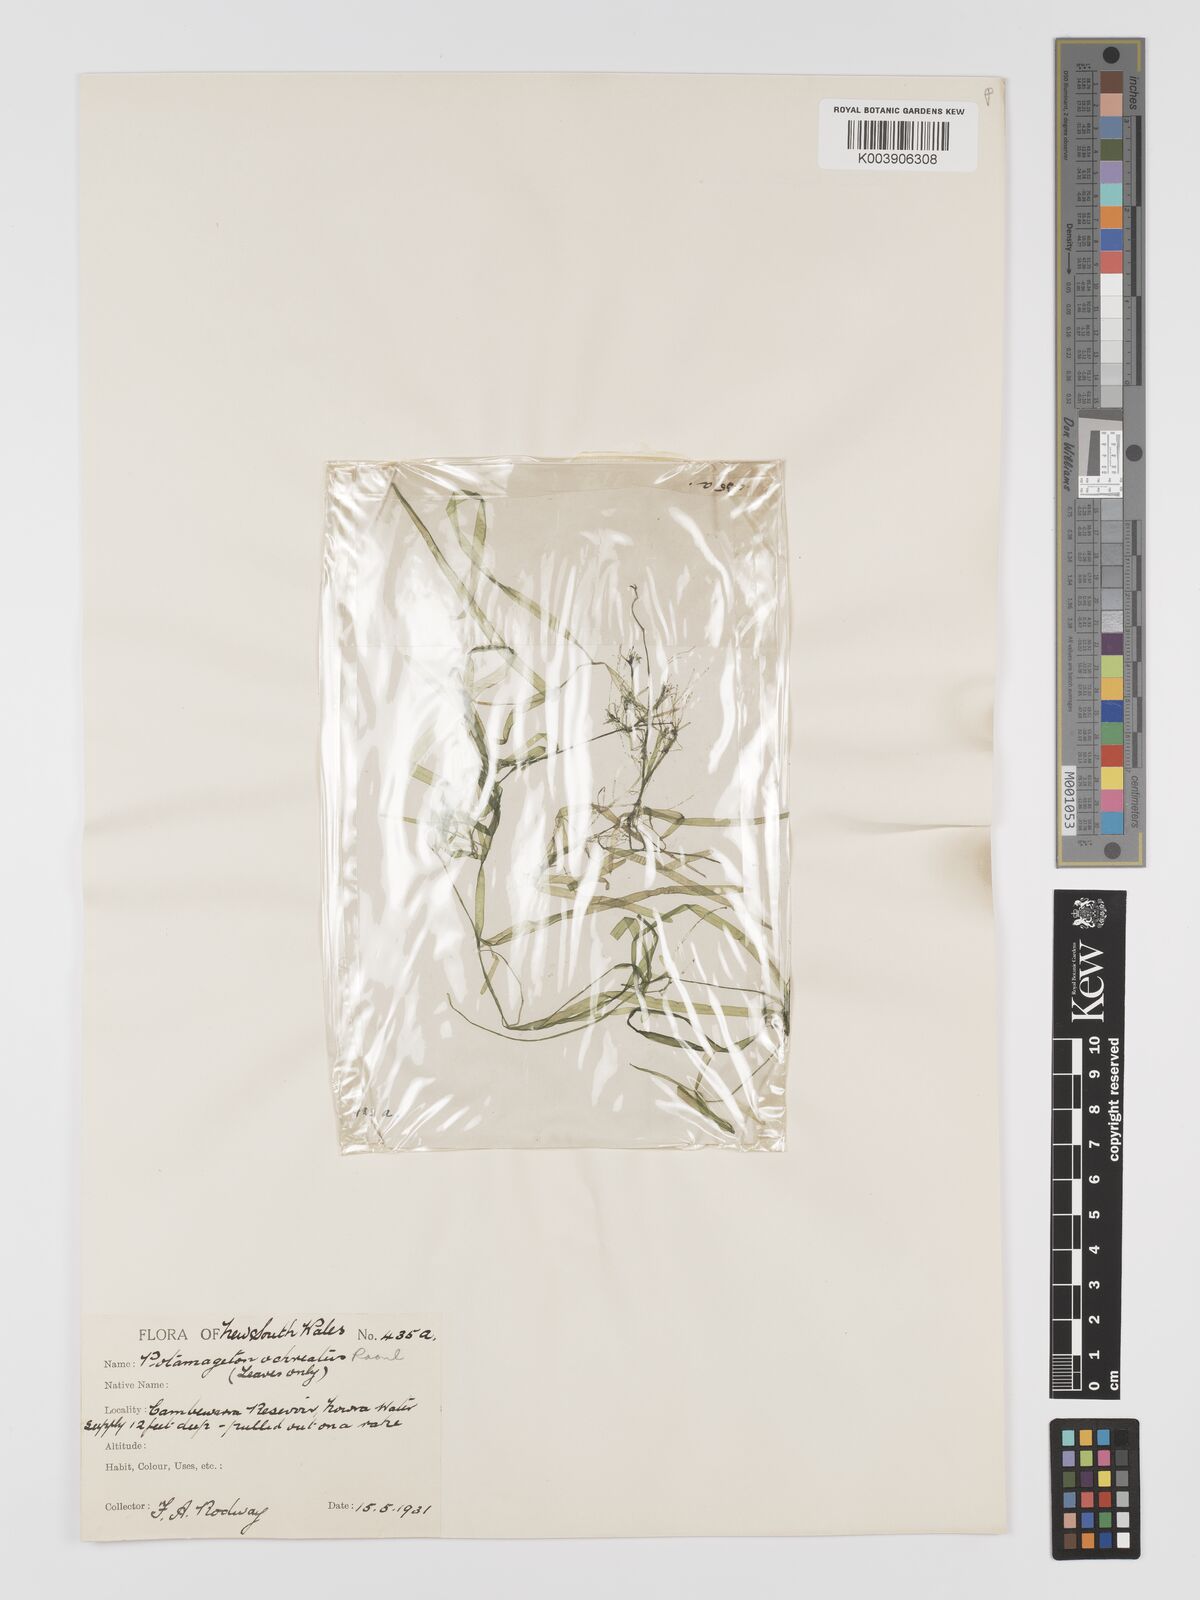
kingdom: Plantae
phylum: Tracheophyta
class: Liliopsida
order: Alismatales
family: Potamogetonaceae
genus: Potamogeton
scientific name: Potamogeton ochreatus
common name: Blunt pondweed
